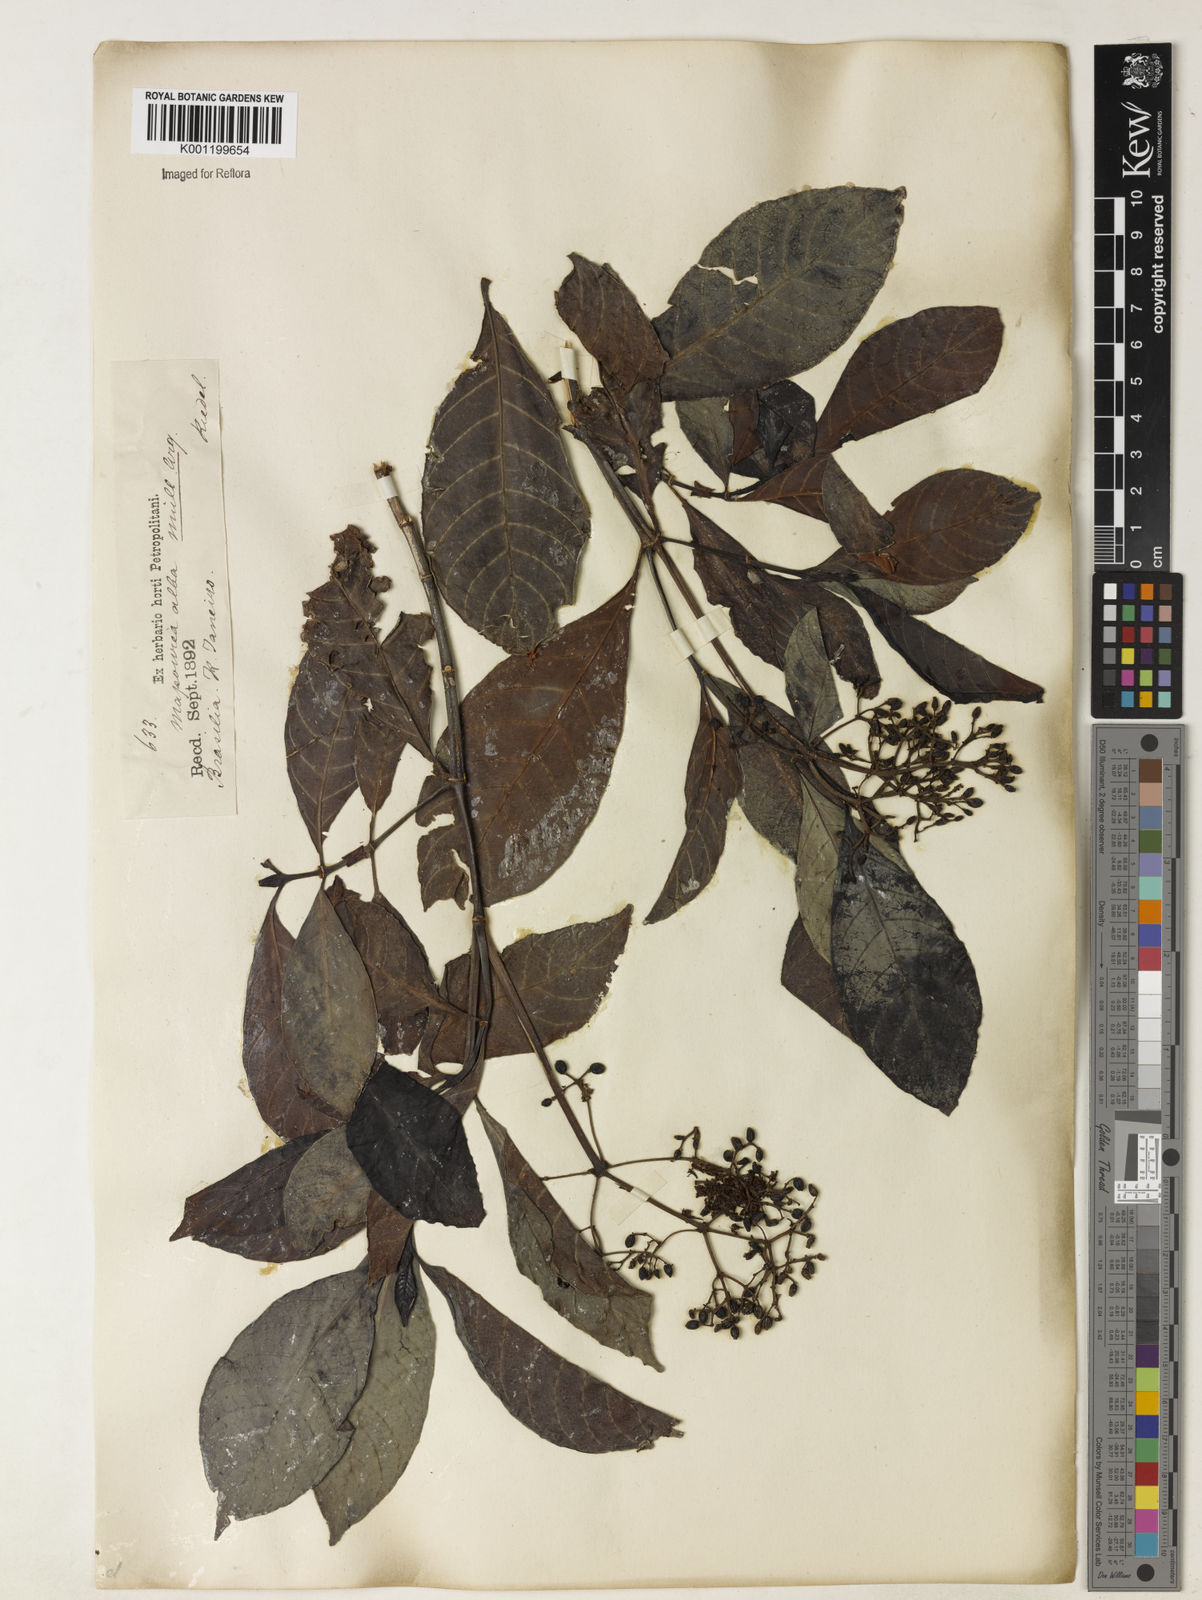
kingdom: Plantae
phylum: Tracheophyta
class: Magnoliopsida
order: Gentianales
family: Rubiaceae
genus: Psychotria
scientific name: Psychotria carthagenensis
